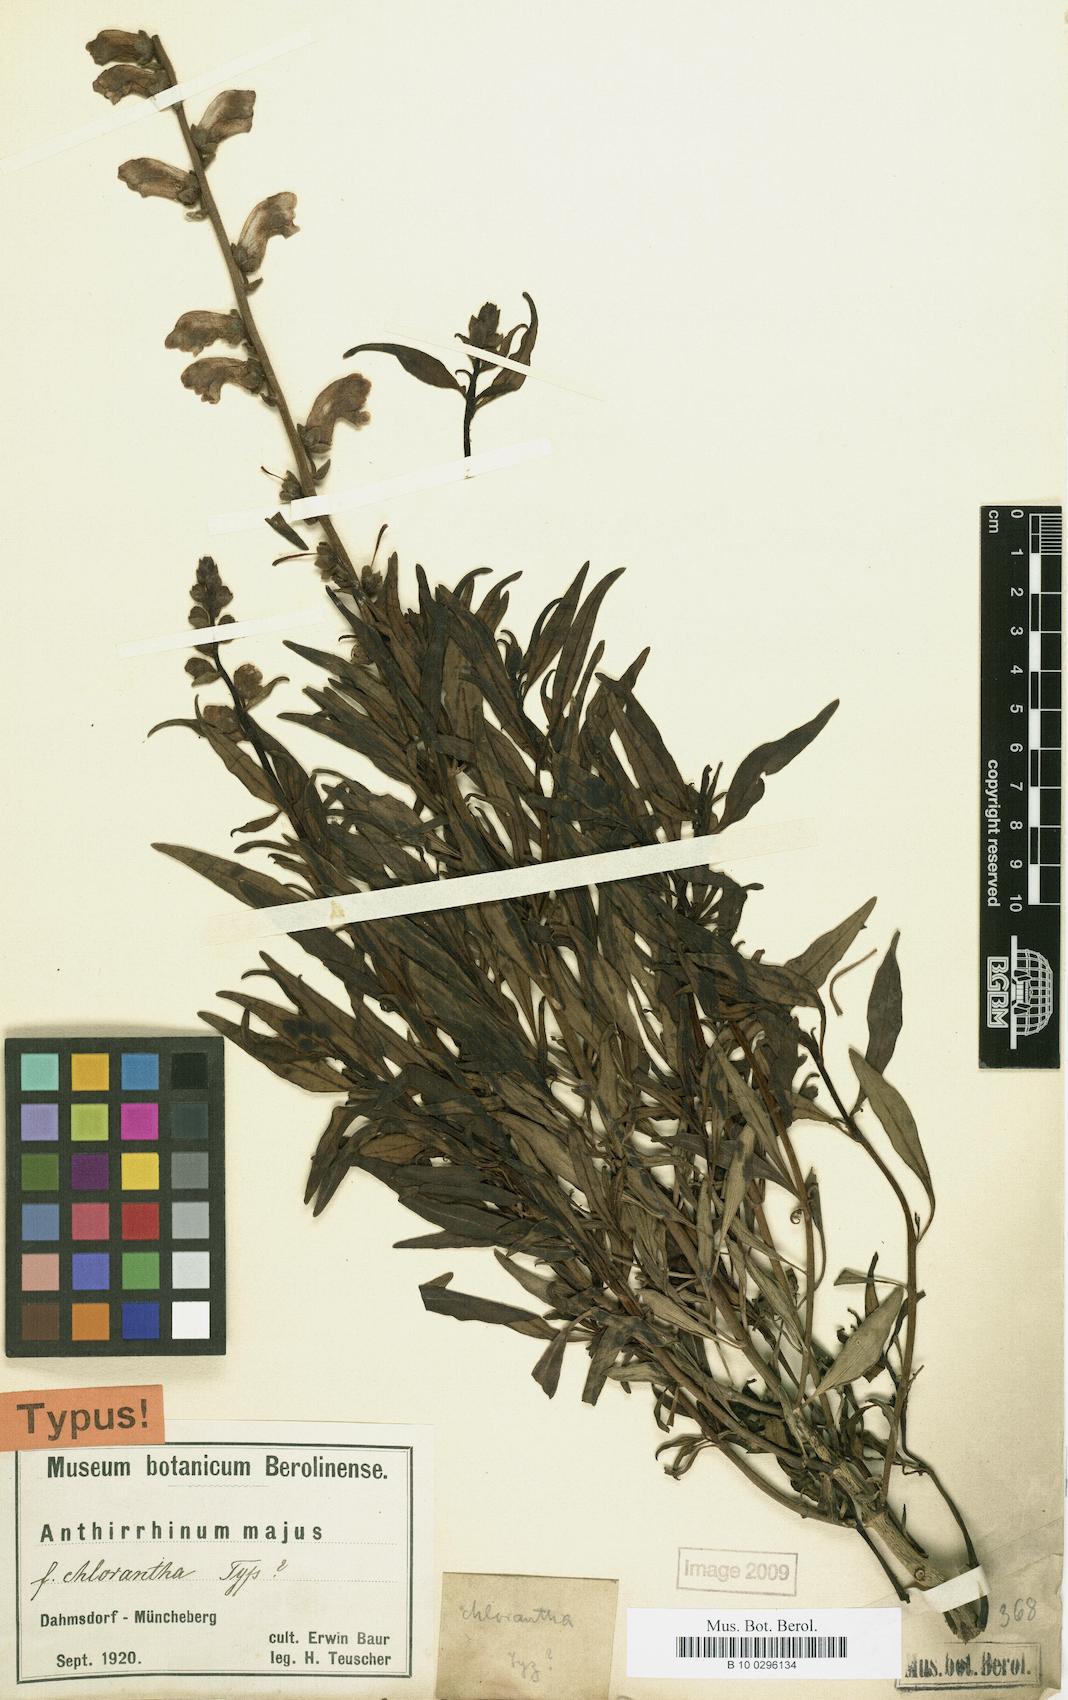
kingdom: Plantae
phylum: Tracheophyta
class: Magnoliopsida
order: Lamiales
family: Plantaginaceae
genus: Antirrhinum
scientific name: Antirrhinum majus
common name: Snapdragon
